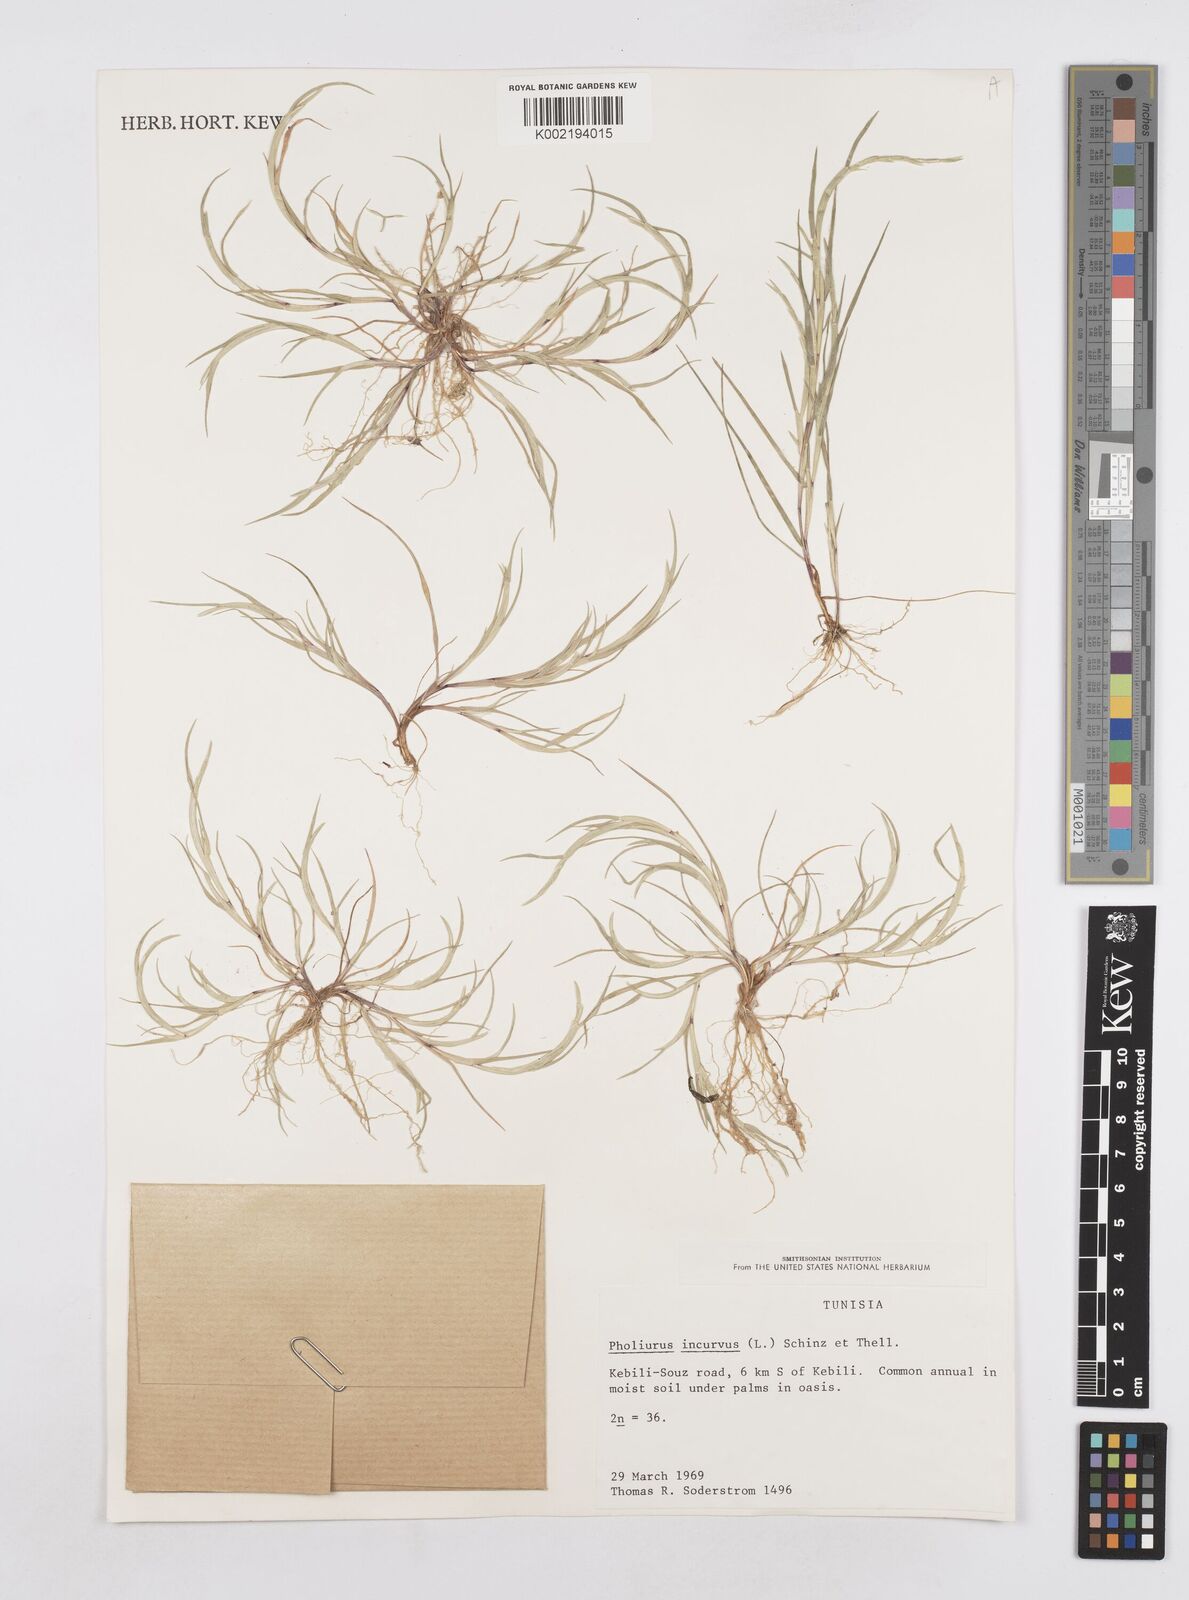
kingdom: Plantae
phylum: Tracheophyta
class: Liliopsida
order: Poales
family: Poaceae
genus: Parapholis
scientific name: Parapholis incurva
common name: Curved sicklegrass
